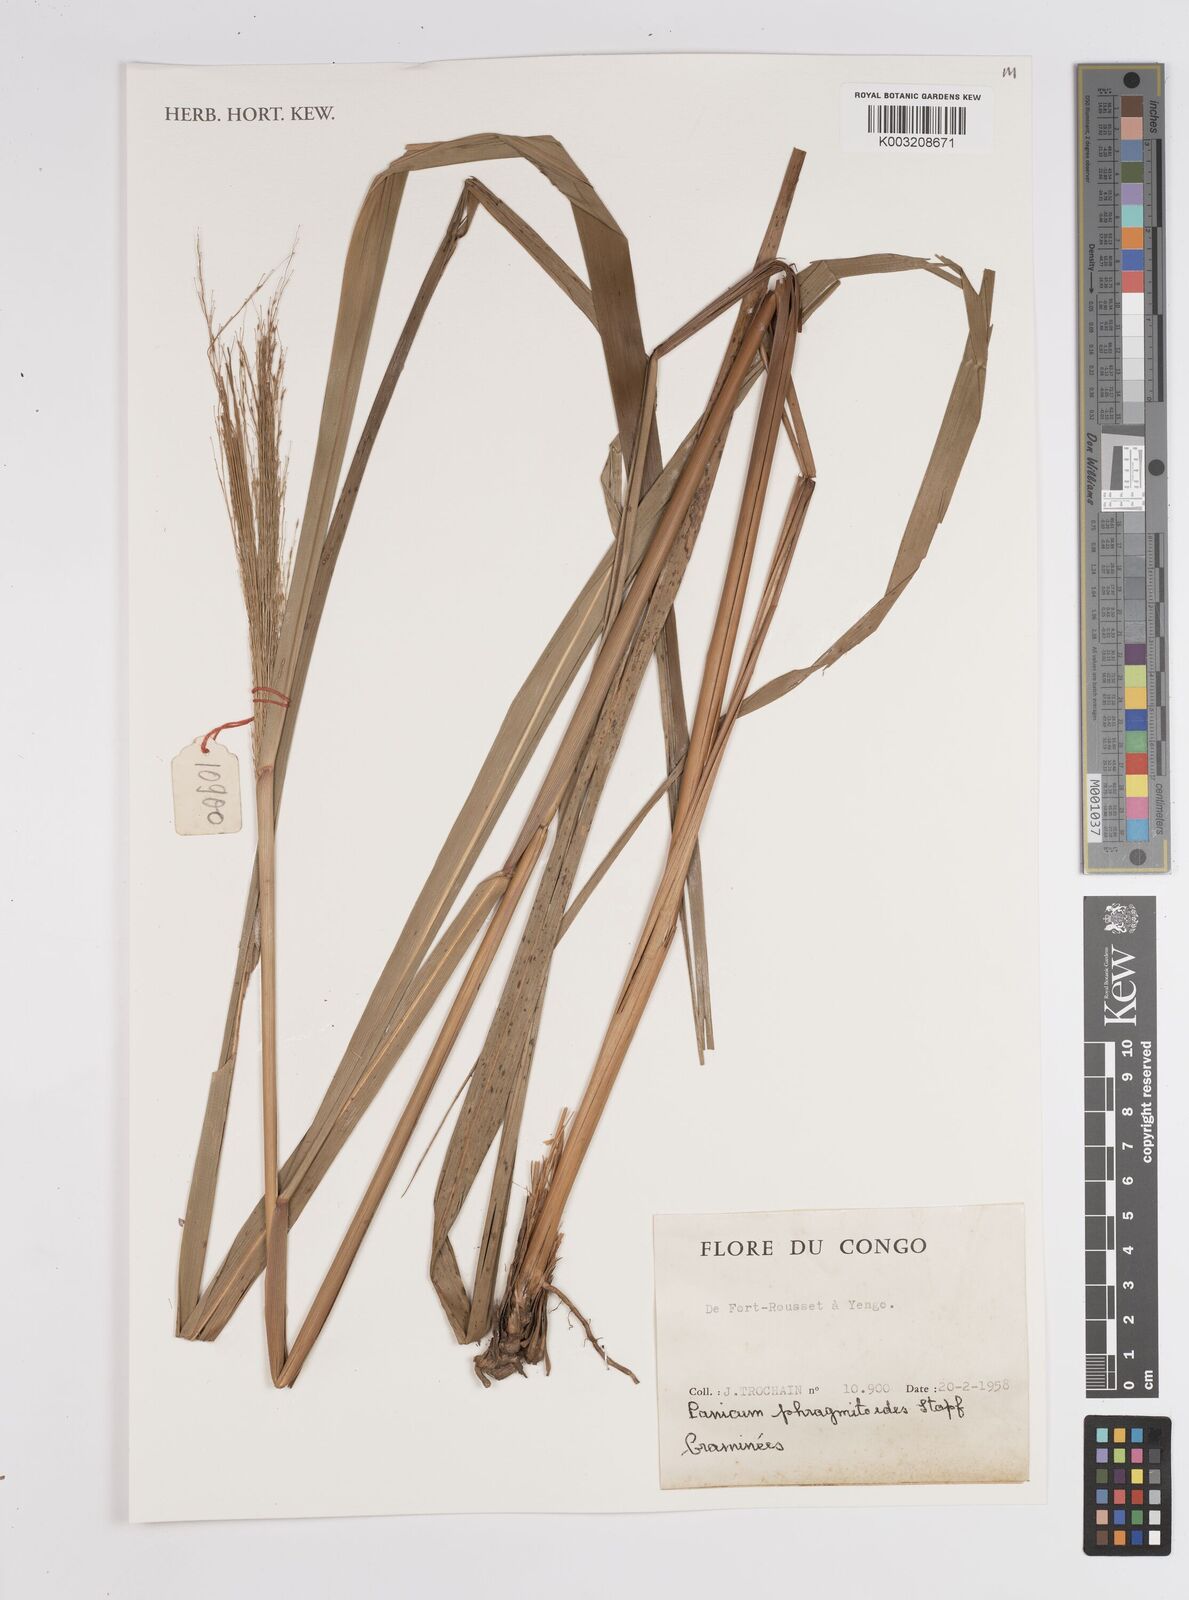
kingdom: Plantae
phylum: Tracheophyta
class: Liliopsida
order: Poales
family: Poaceae
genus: Panicum
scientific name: Panicum phragmitoides
